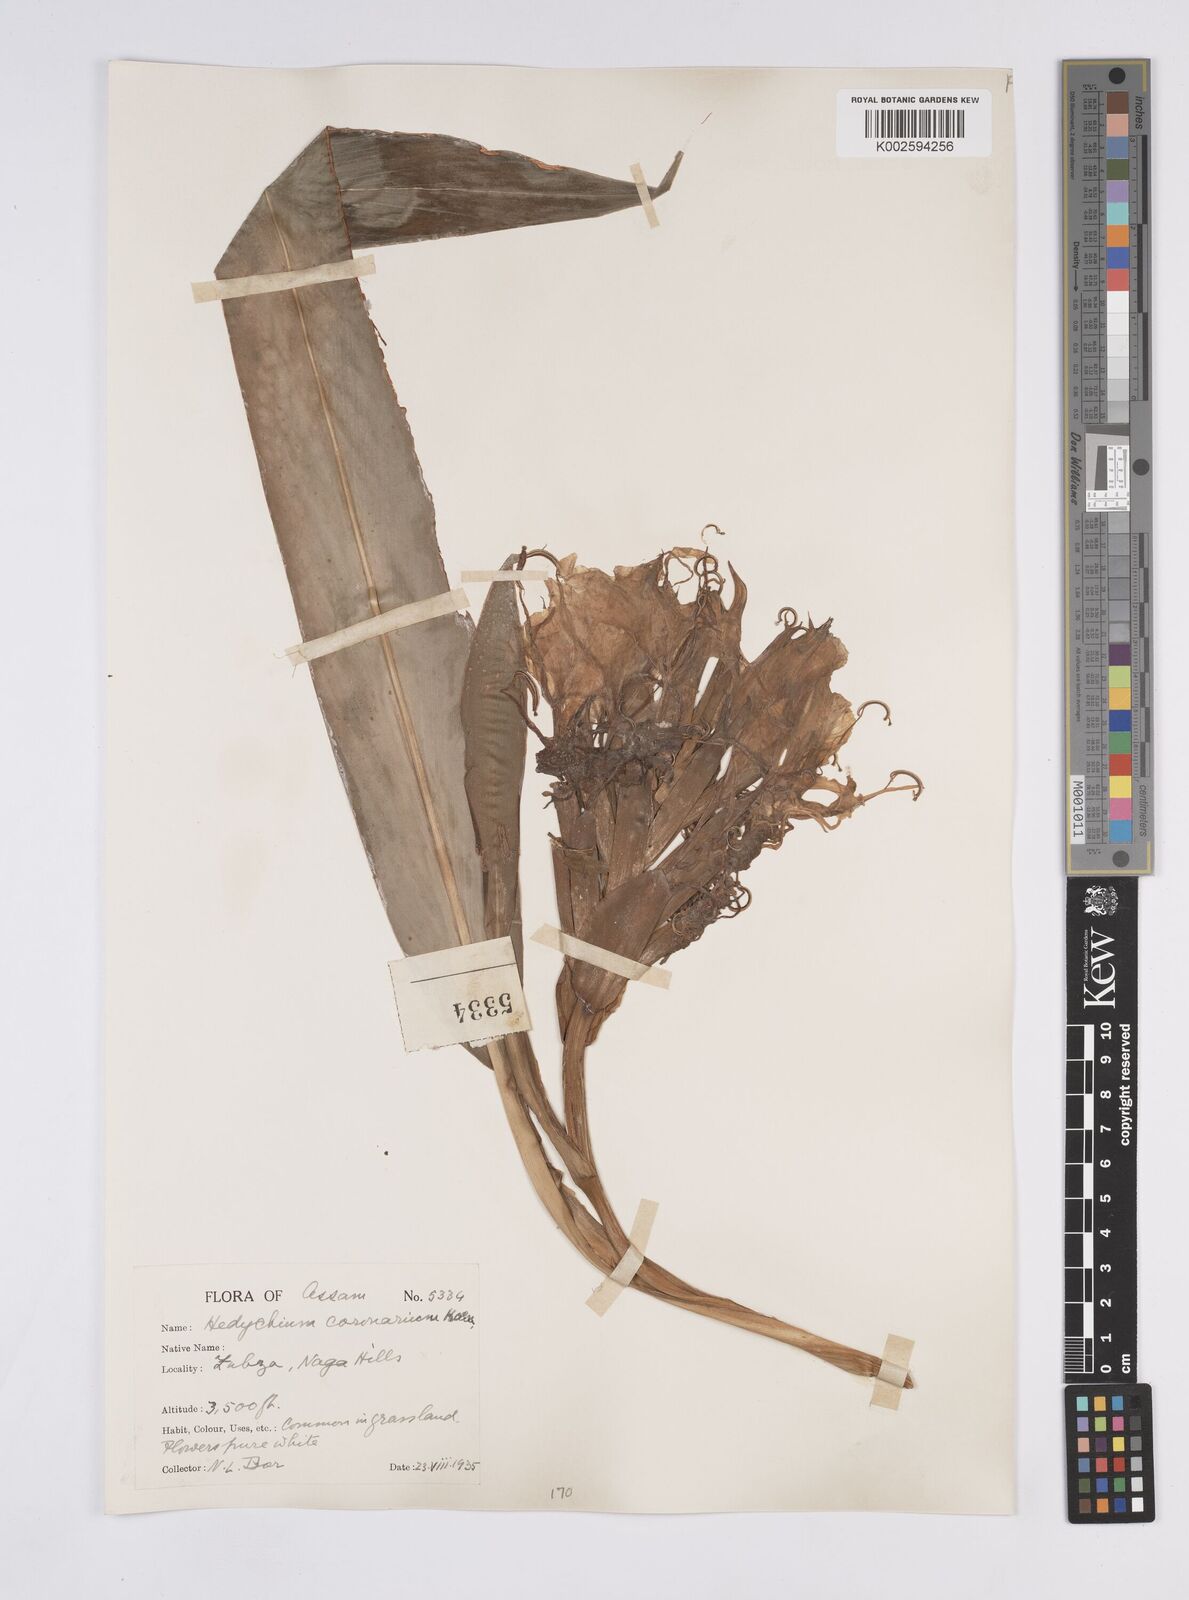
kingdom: Plantae
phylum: Tracheophyta
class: Liliopsida
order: Zingiberales
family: Zingiberaceae
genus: Hedychium
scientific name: Hedychium coronarium
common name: White garland-lily
